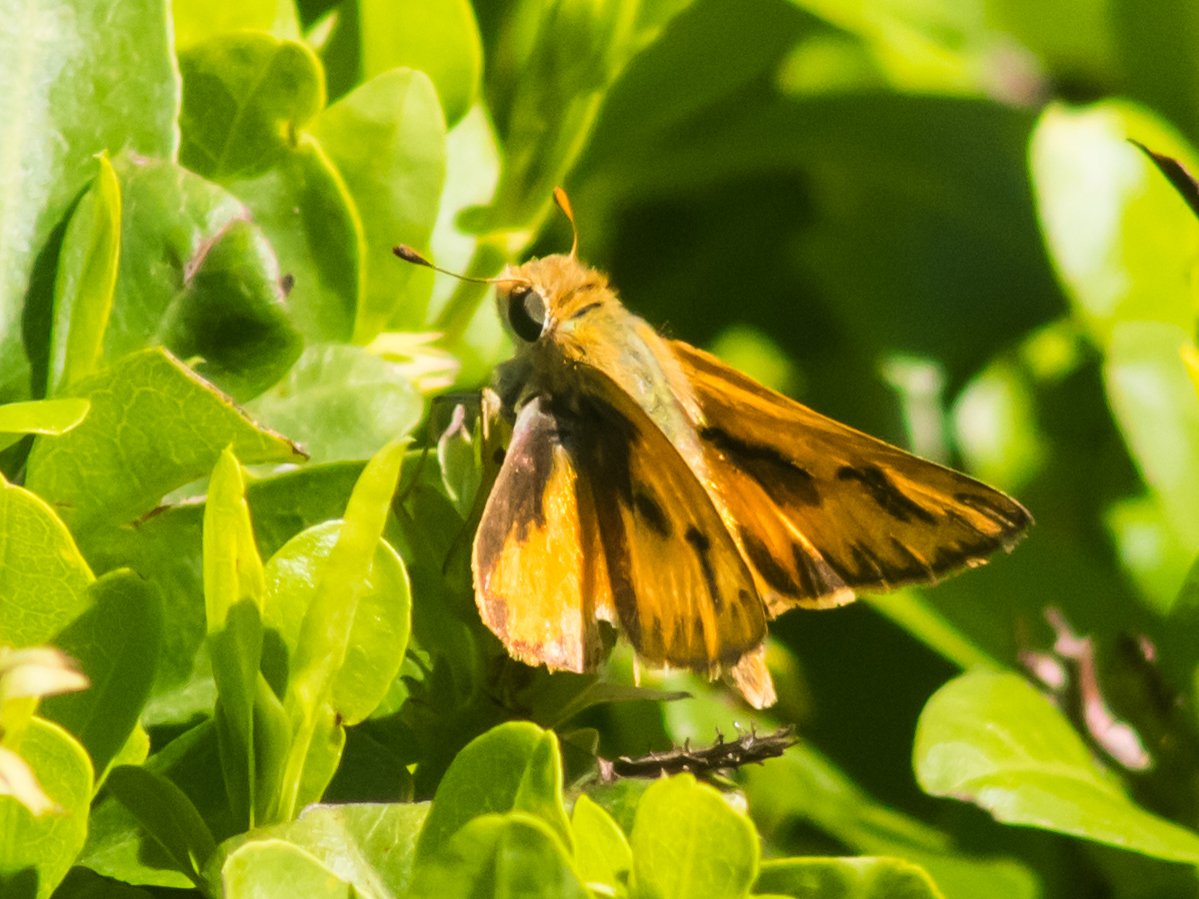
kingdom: Animalia
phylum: Arthropoda
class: Insecta
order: Lepidoptera
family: Hesperiidae
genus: Hylephila
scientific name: Hylephila phyleus
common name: Fiery Skipper
